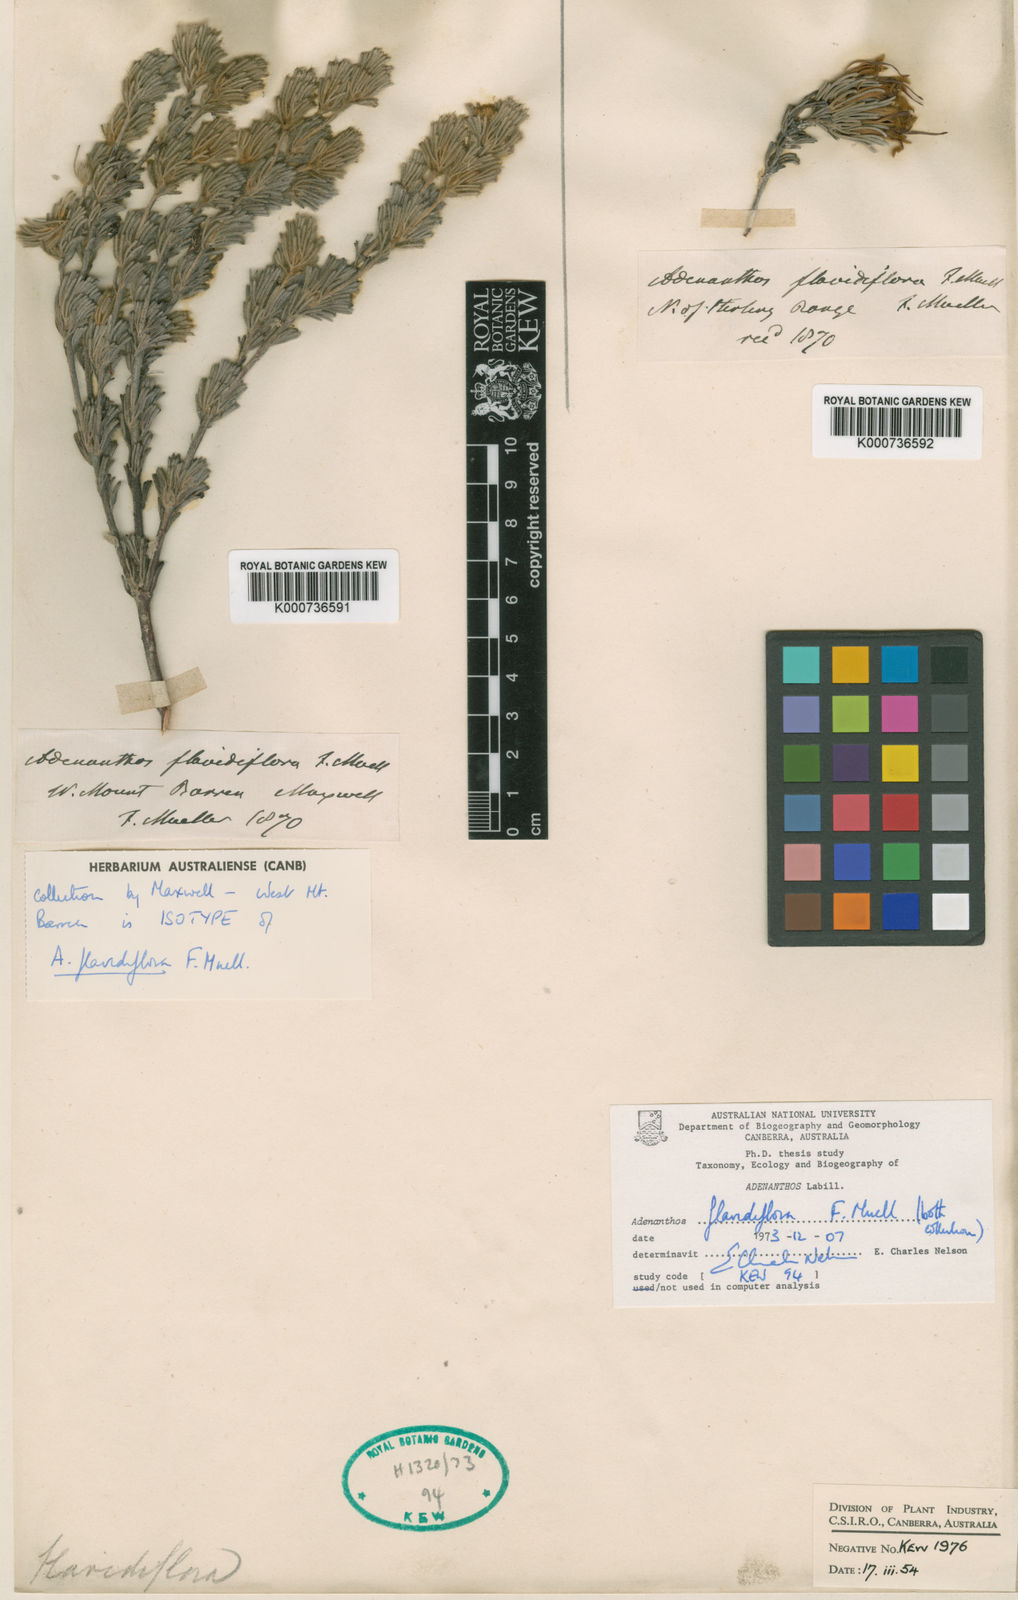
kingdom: Plantae
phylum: Tracheophyta
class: Magnoliopsida
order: Proteales
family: Proteaceae
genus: Adenanthos
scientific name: Adenanthos flavidiflorus
